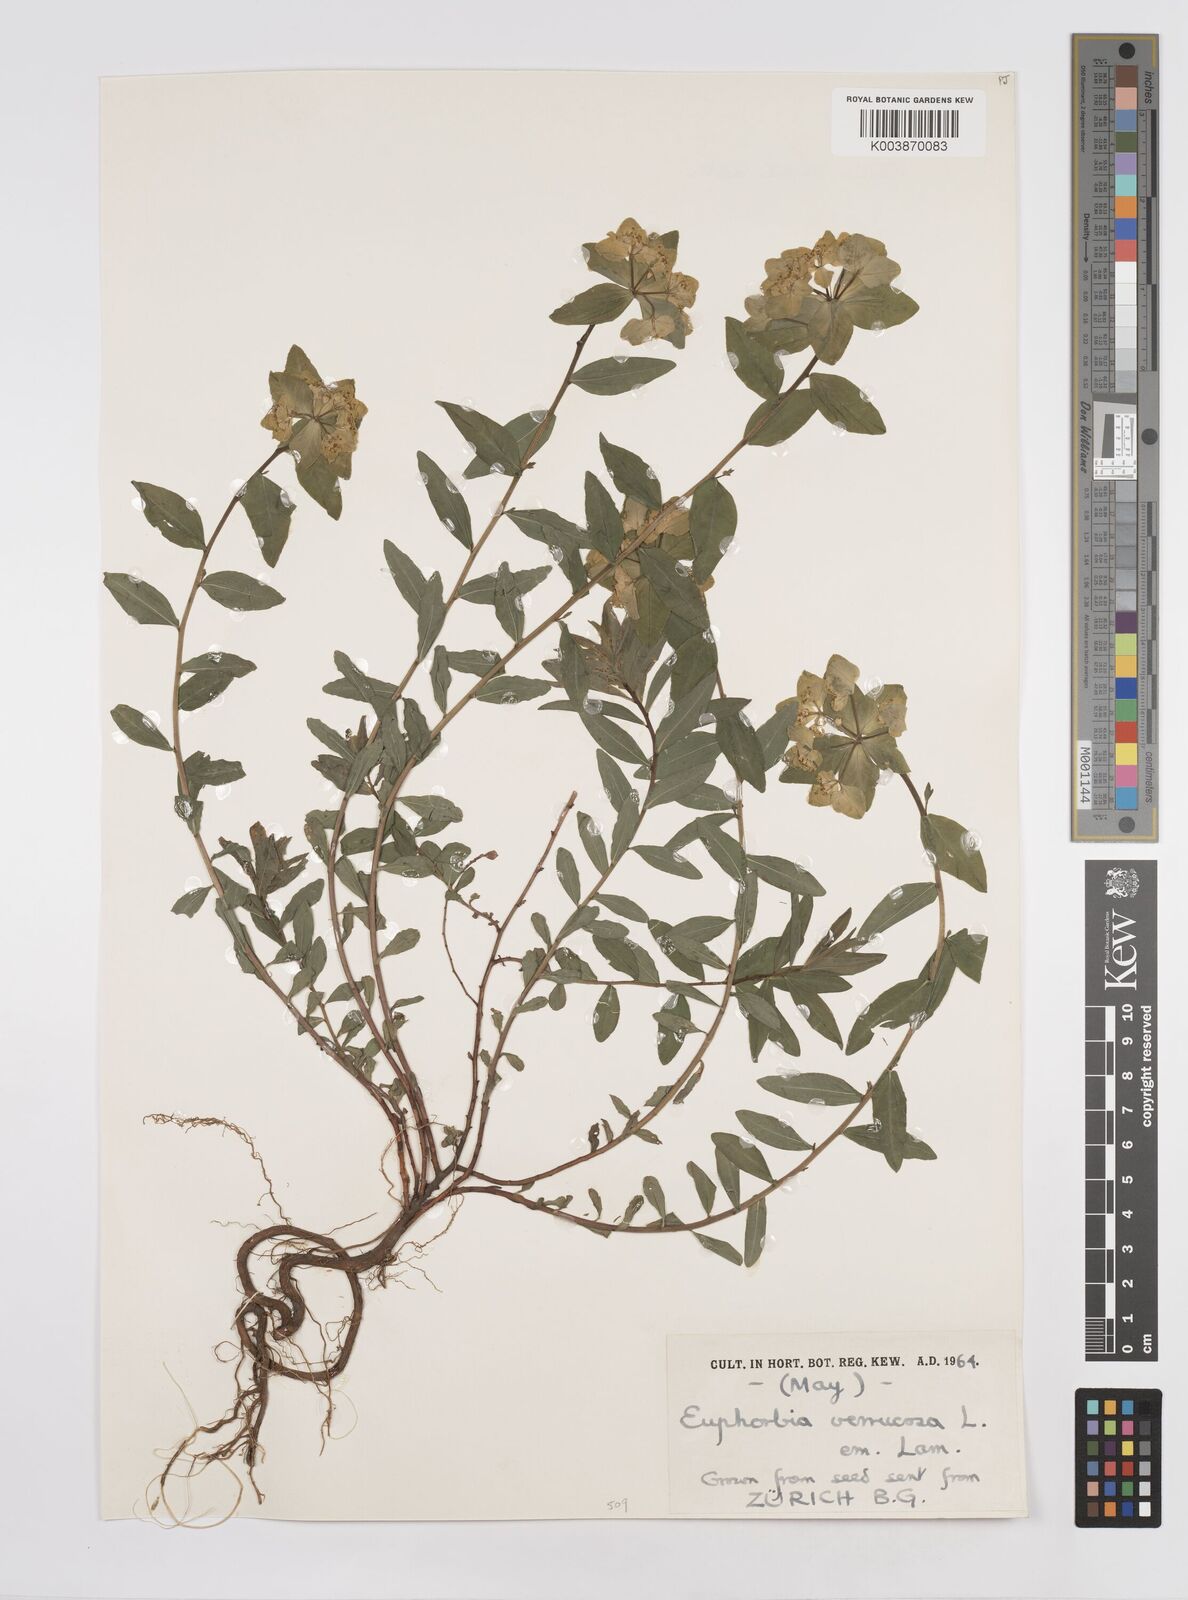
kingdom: Plantae
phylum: Tracheophyta
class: Magnoliopsida
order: Malpighiales
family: Euphorbiaceae
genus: Euphorbia
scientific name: Euphorbia
